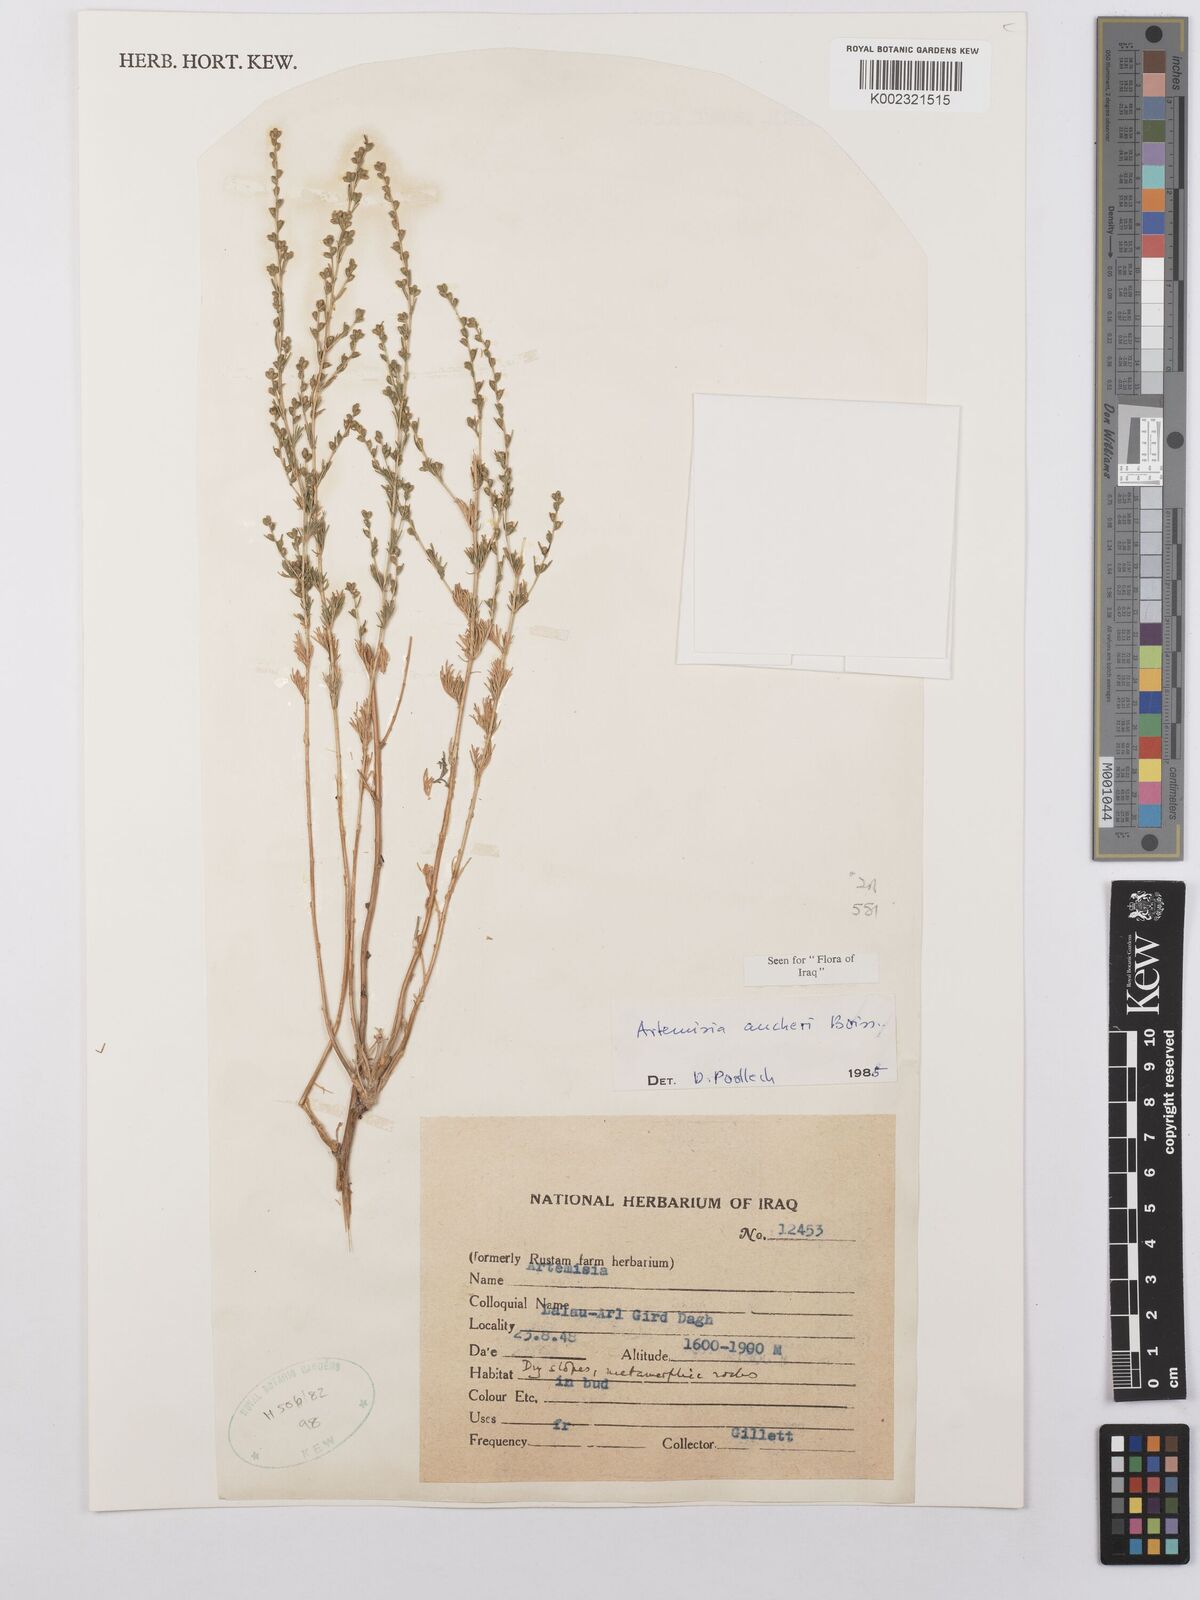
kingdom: Plantae
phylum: Tracheophyta
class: Magnoliopsida
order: Asterales
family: Asteraceae
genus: Artemisia
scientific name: Artemisia aucheri
